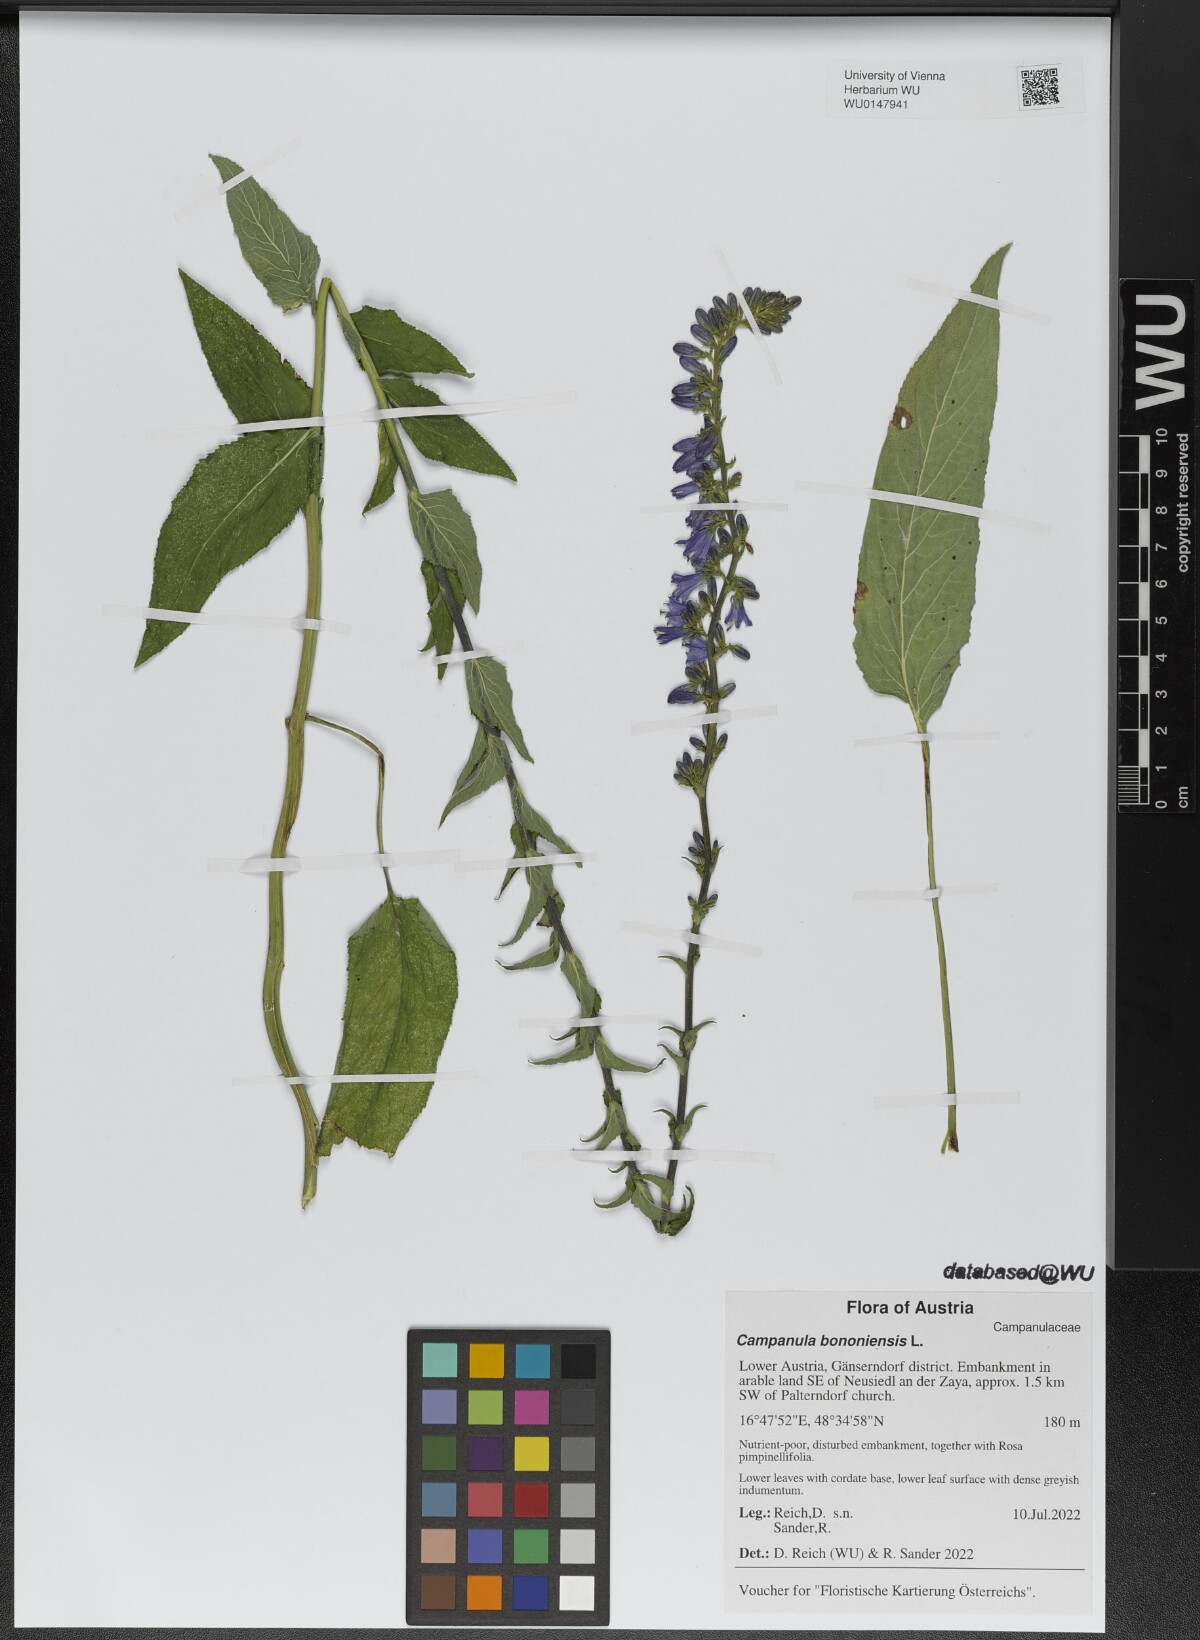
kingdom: Plantae
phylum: Tracheophyta
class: Magnoliopsida
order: Asterales
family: Campanulaceae
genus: Campanula
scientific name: Campanula bononiensis
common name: Pale bellflower
